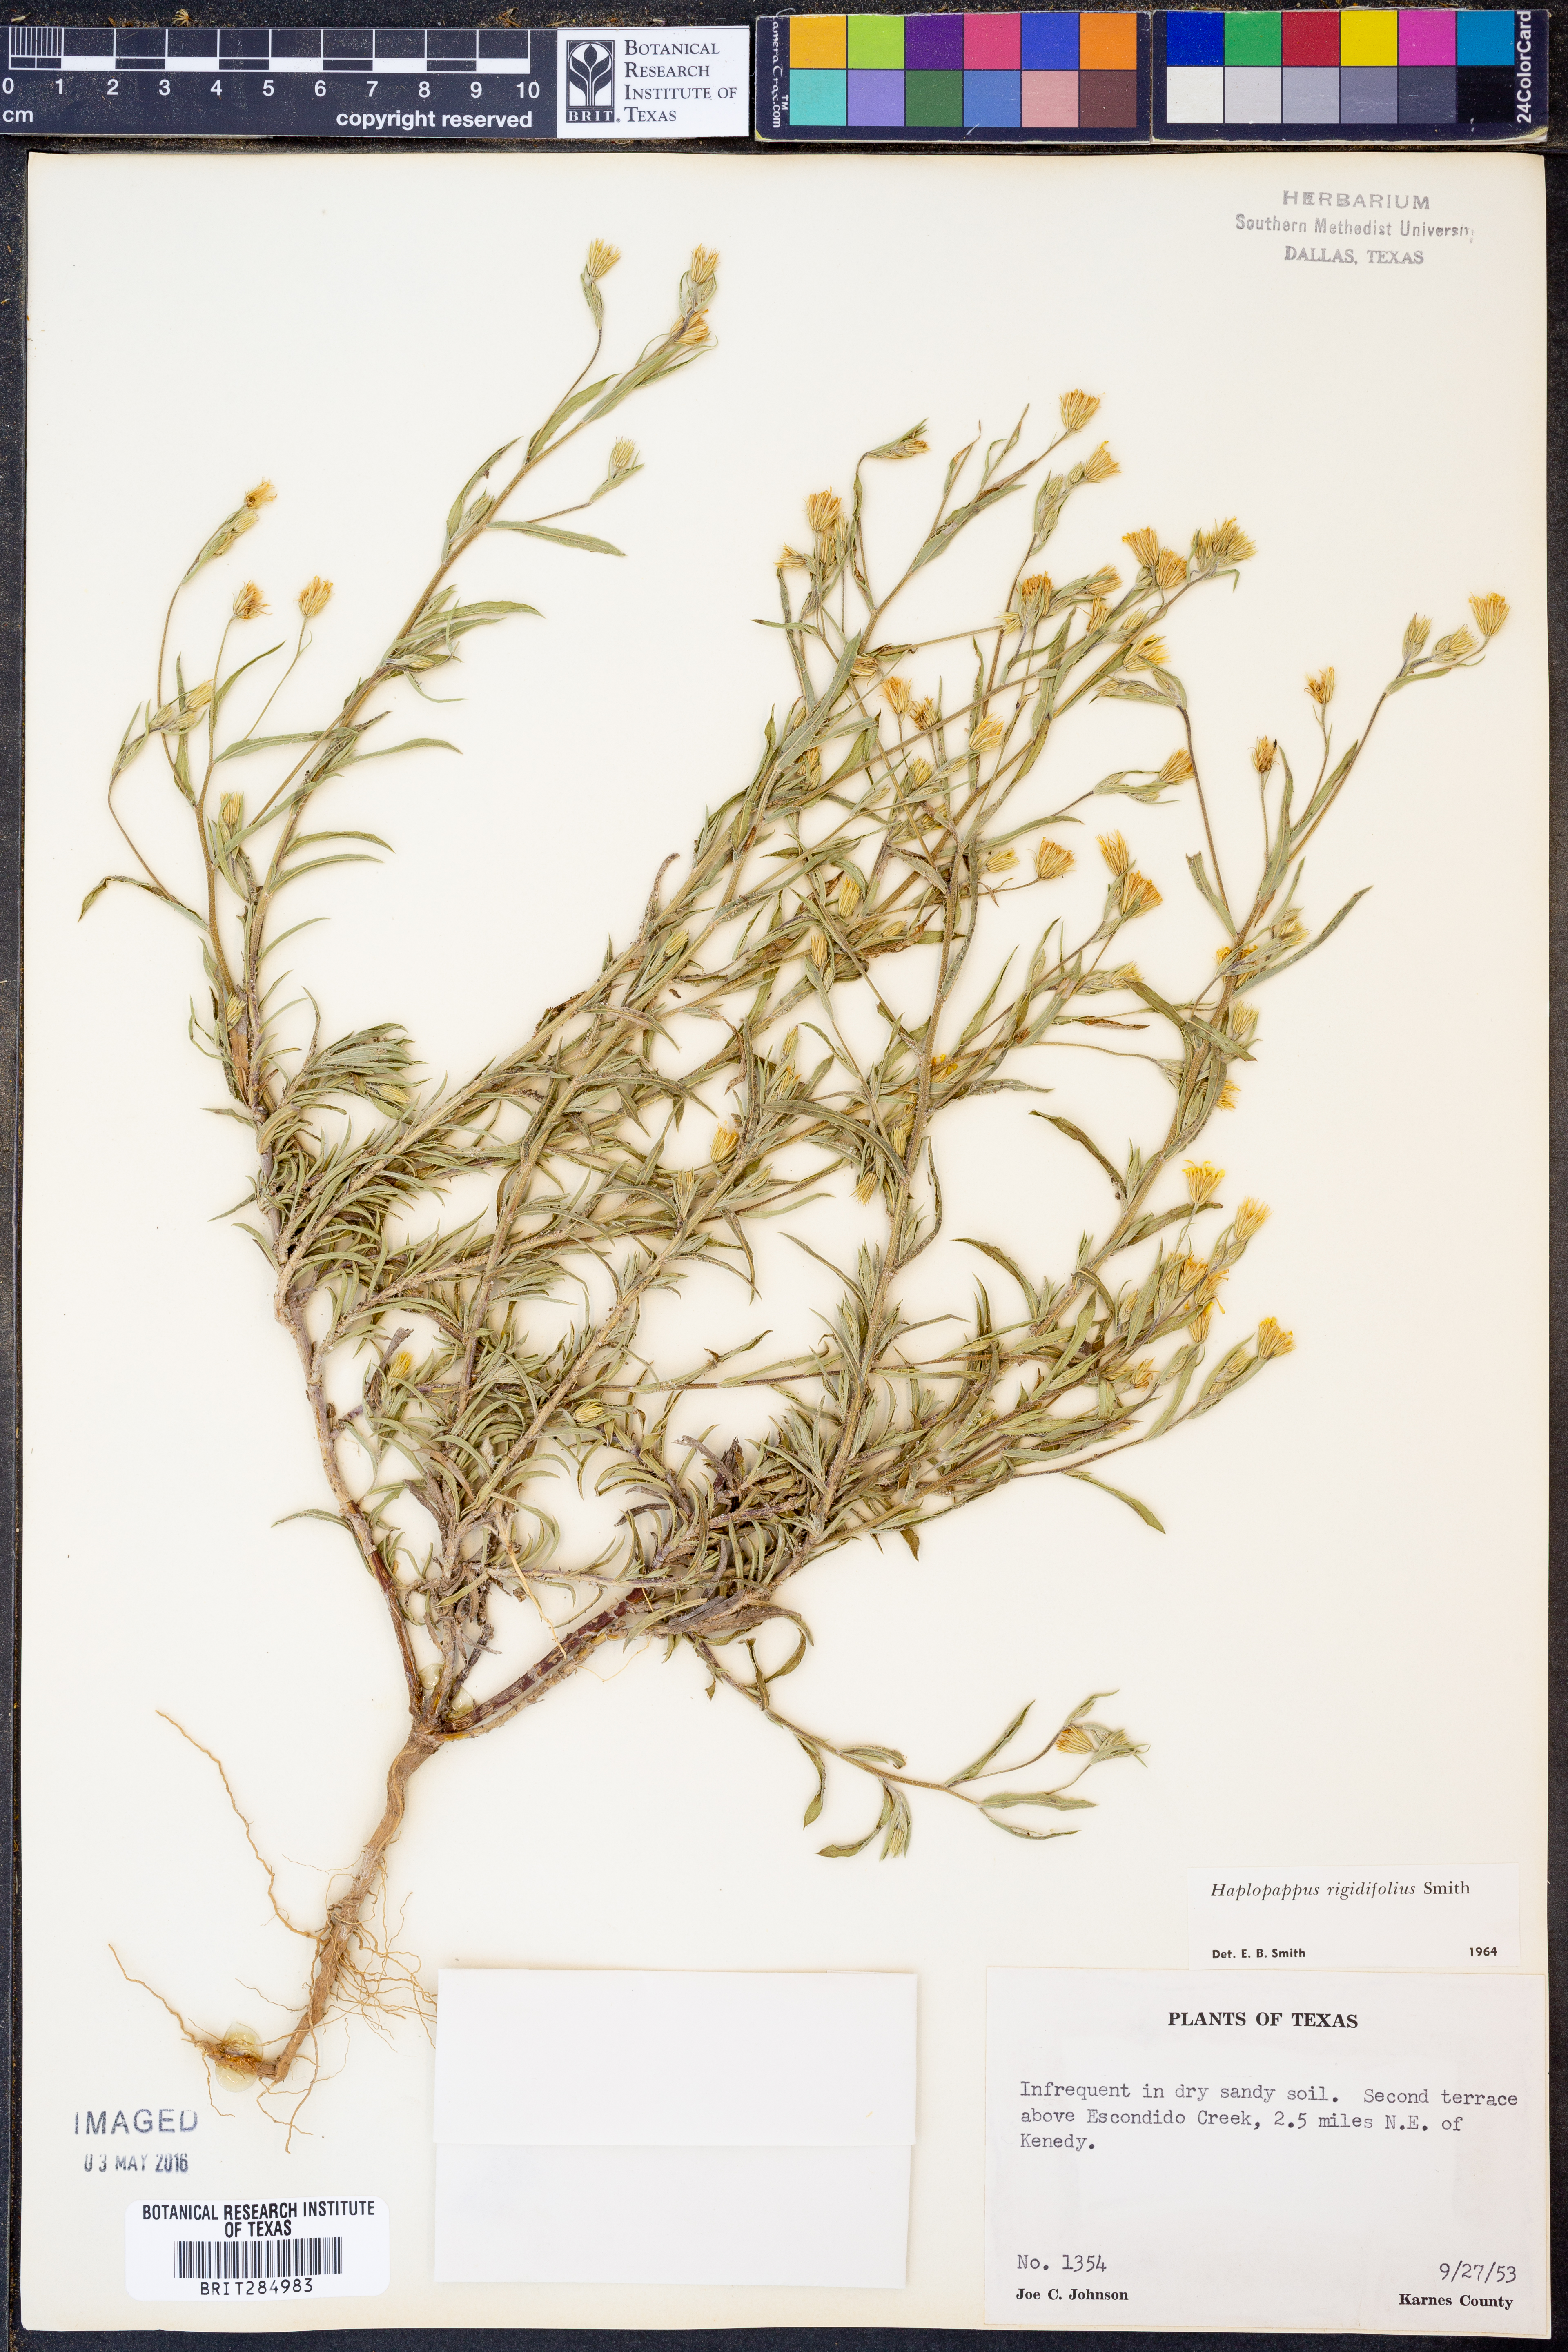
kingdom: Plantae
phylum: Tracheophyta
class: Magnoliopsida
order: Asterales
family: Asteraceae
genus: Croptilon
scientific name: Croptilon rigidifolium
